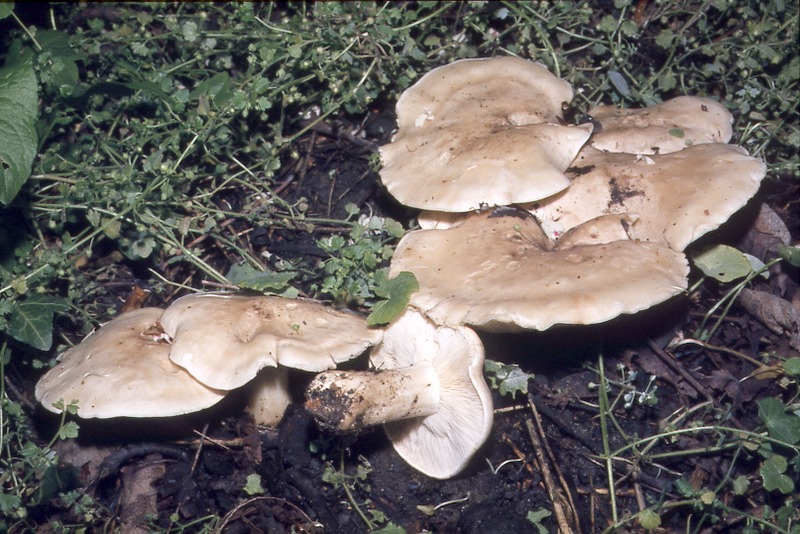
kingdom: Fungi
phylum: Basidiomycota
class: Agaricomycetes
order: Agaricales
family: Lyophyllaceae
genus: Calocybe
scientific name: Calocybe gambosa
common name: St. george's mushroom
